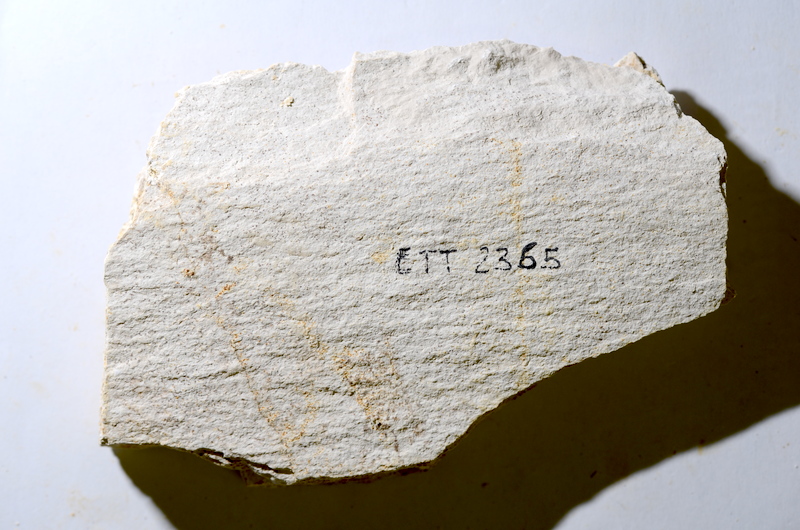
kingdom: Animalia
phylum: Chordata
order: Salmoniformes
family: Orthogonikleithridae
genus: Orthogonikleithrus
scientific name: Orthogonikleithrus hoelli
